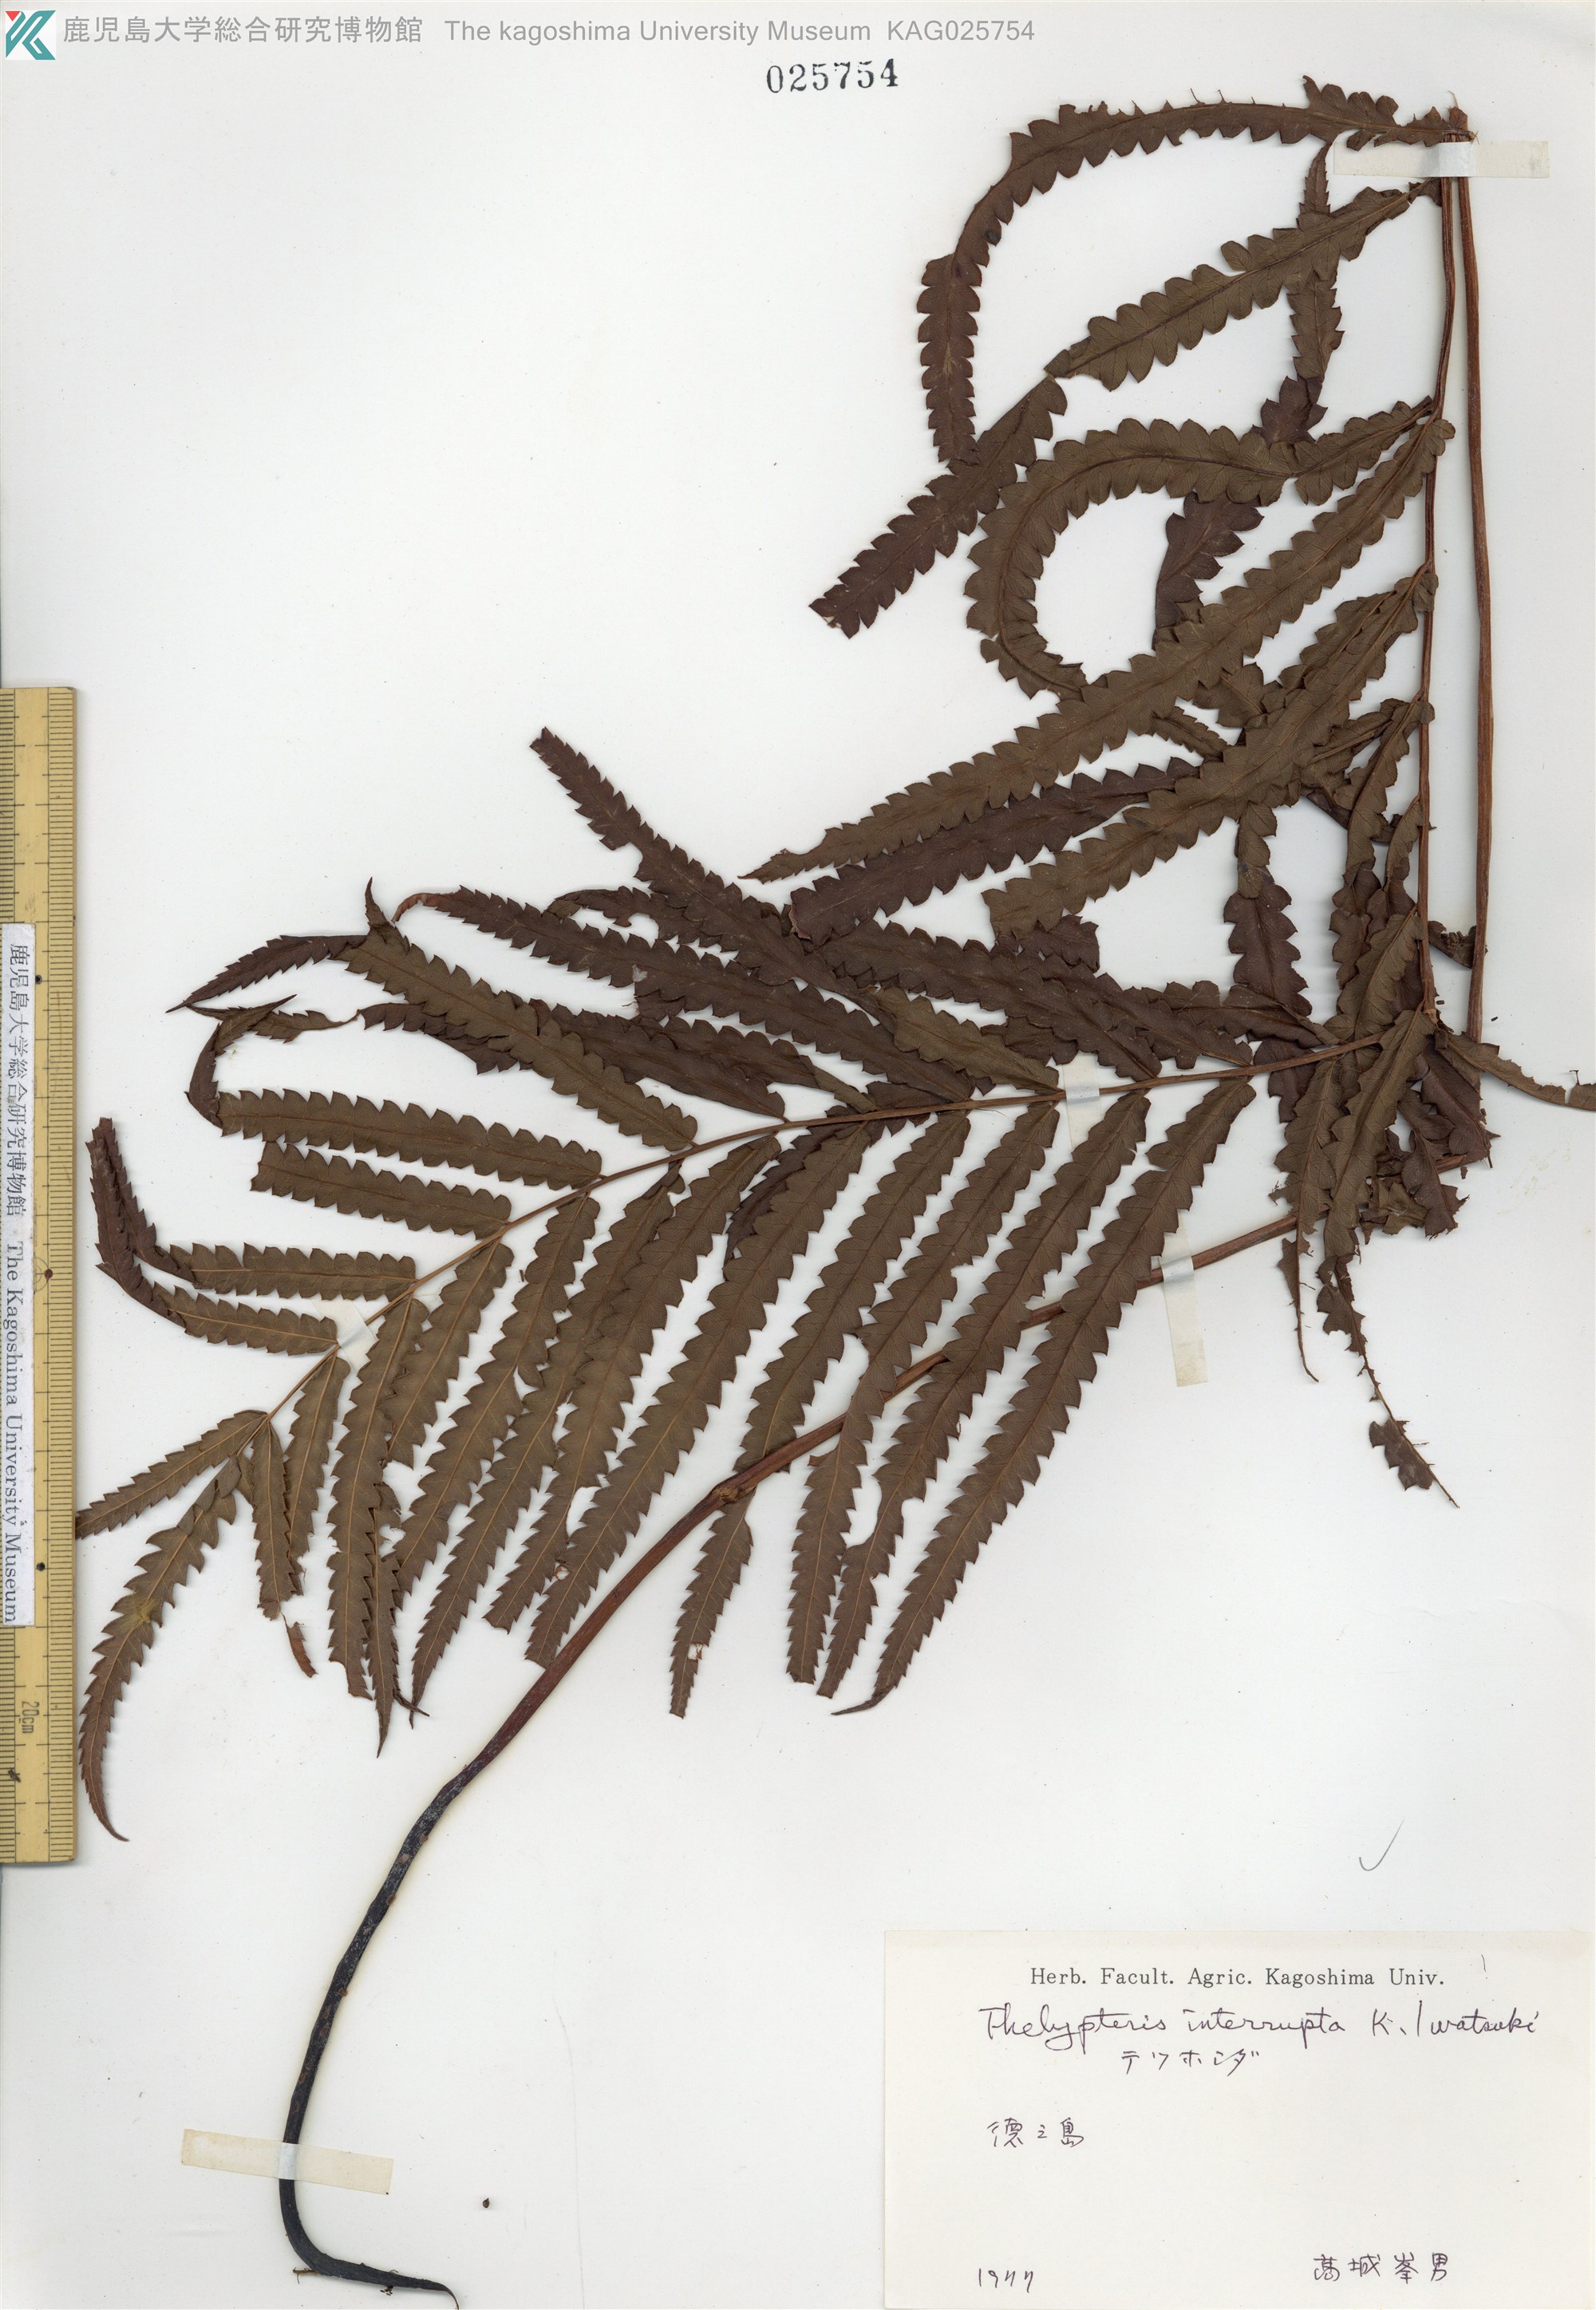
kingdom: Plantae
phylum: Tracheophyta
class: Polypodiopsida
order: Polypodiales
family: Thelypteridaceae
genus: Cyclosorus
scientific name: Cyclosorus interruptus
